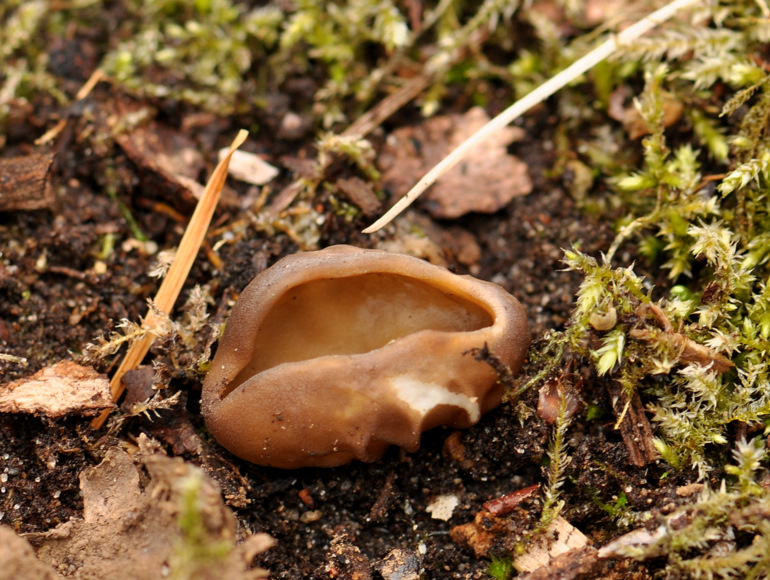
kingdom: Fungi
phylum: Ascomycota
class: Pezizomycetes
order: Pezizales
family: Helvellaceae
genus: Helvella
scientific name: Helvella acetabulum
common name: pokal-foldhat
